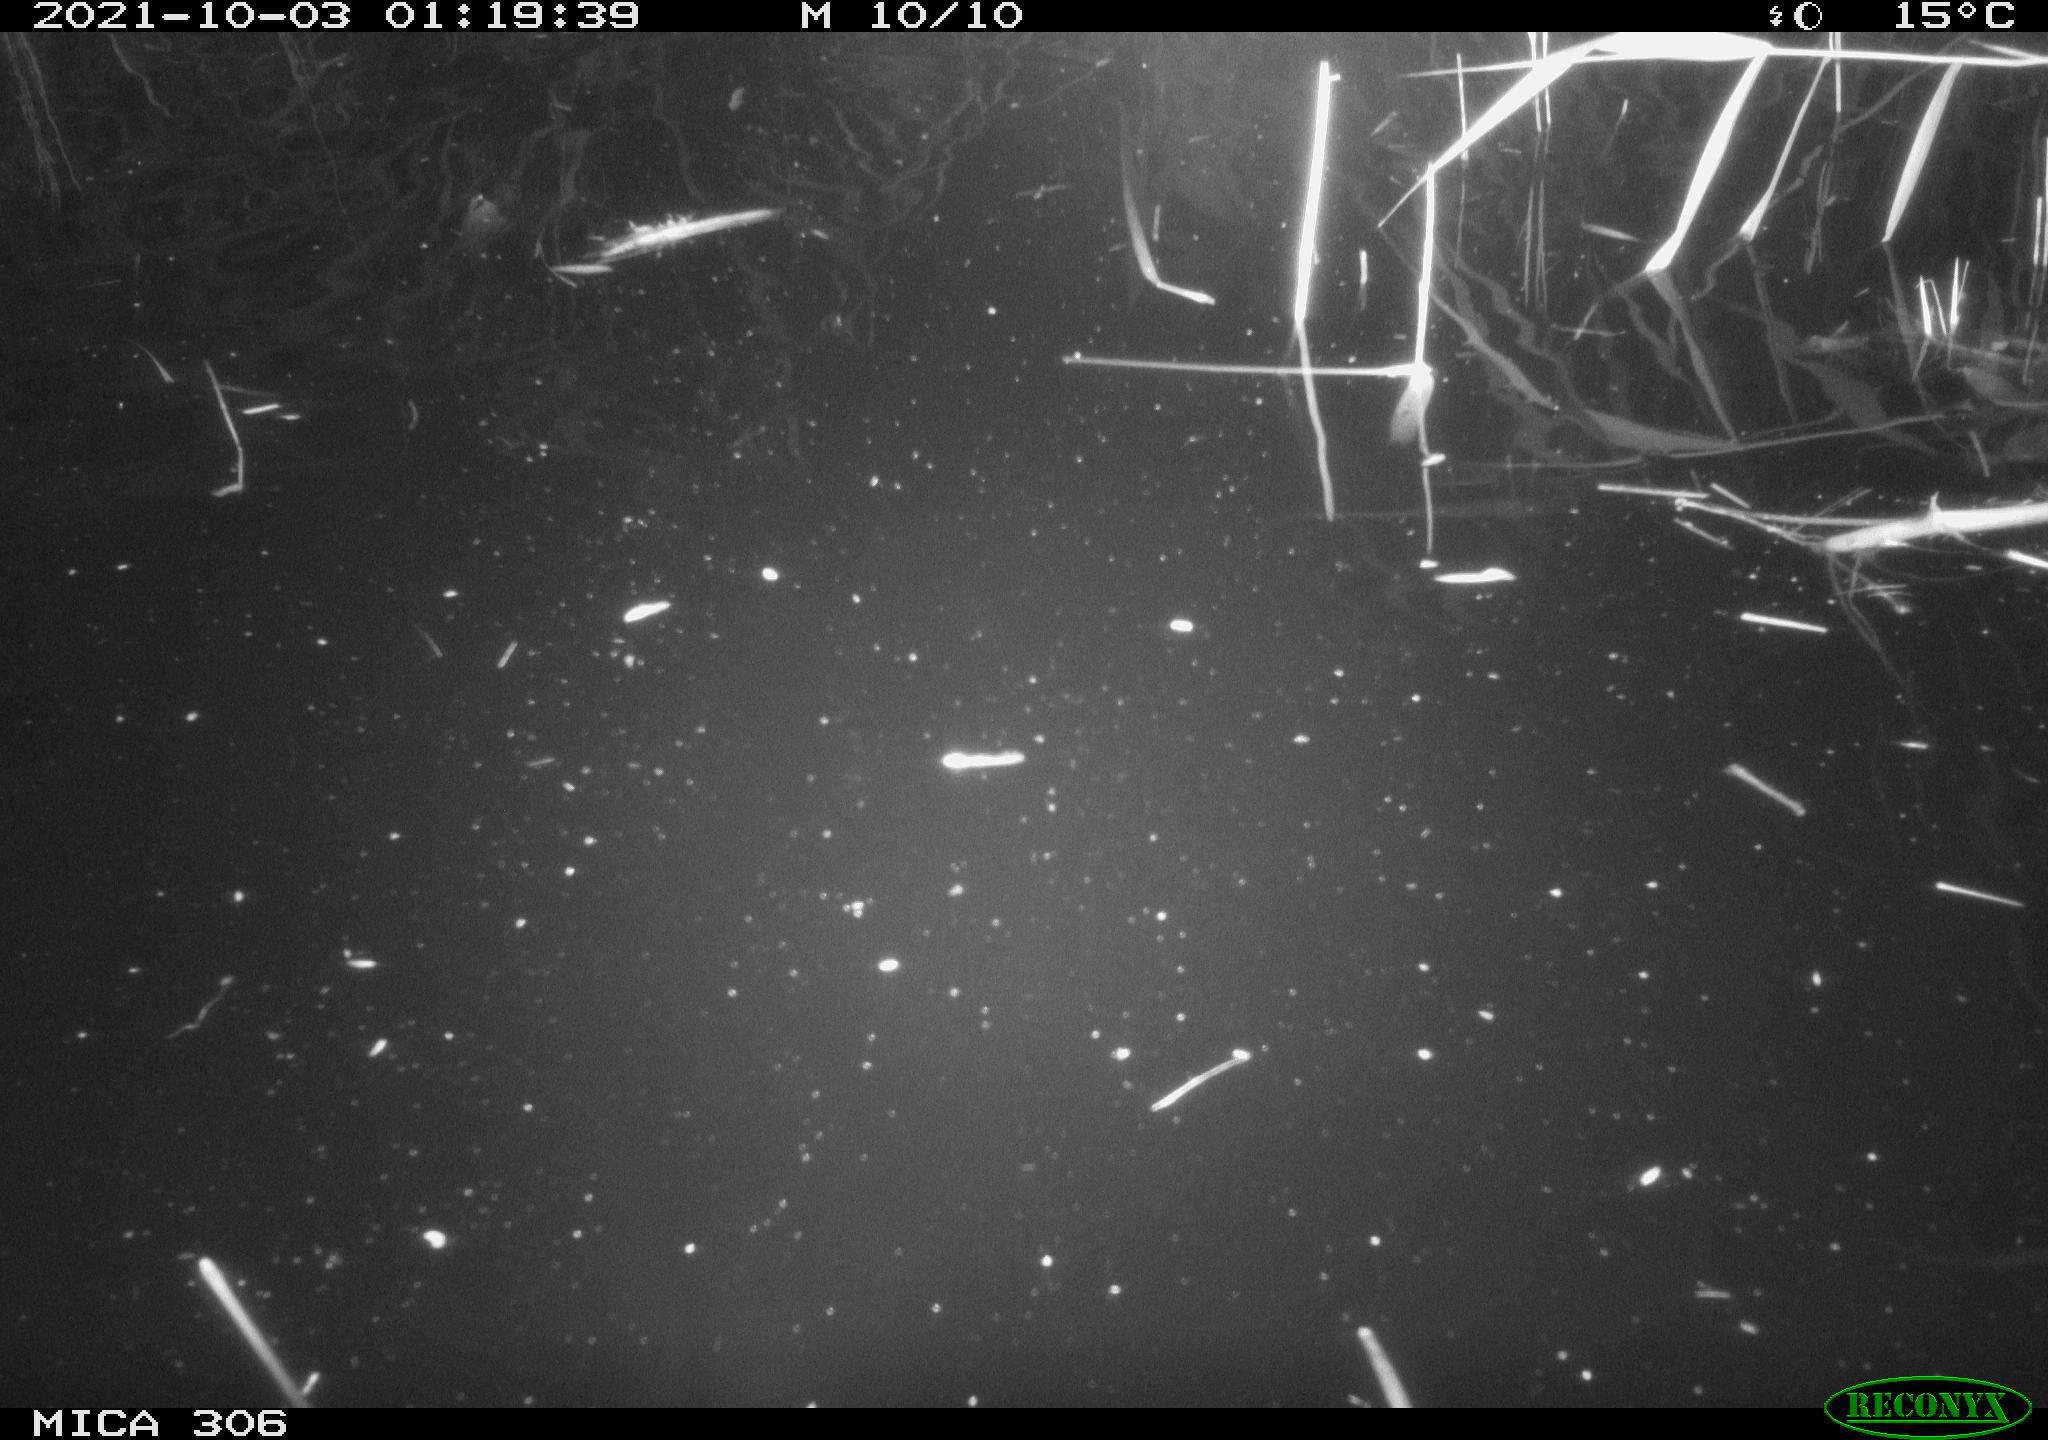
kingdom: Animalia
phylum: Chordata
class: Mammalia
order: Rodentia
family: Cricetidae
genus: Ondatra
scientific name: Ondatra zibethicus
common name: Muskrat
